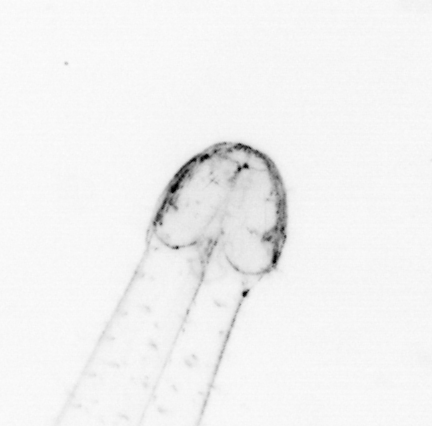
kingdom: Animalia
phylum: Chaetognatha
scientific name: Chaetognatha
